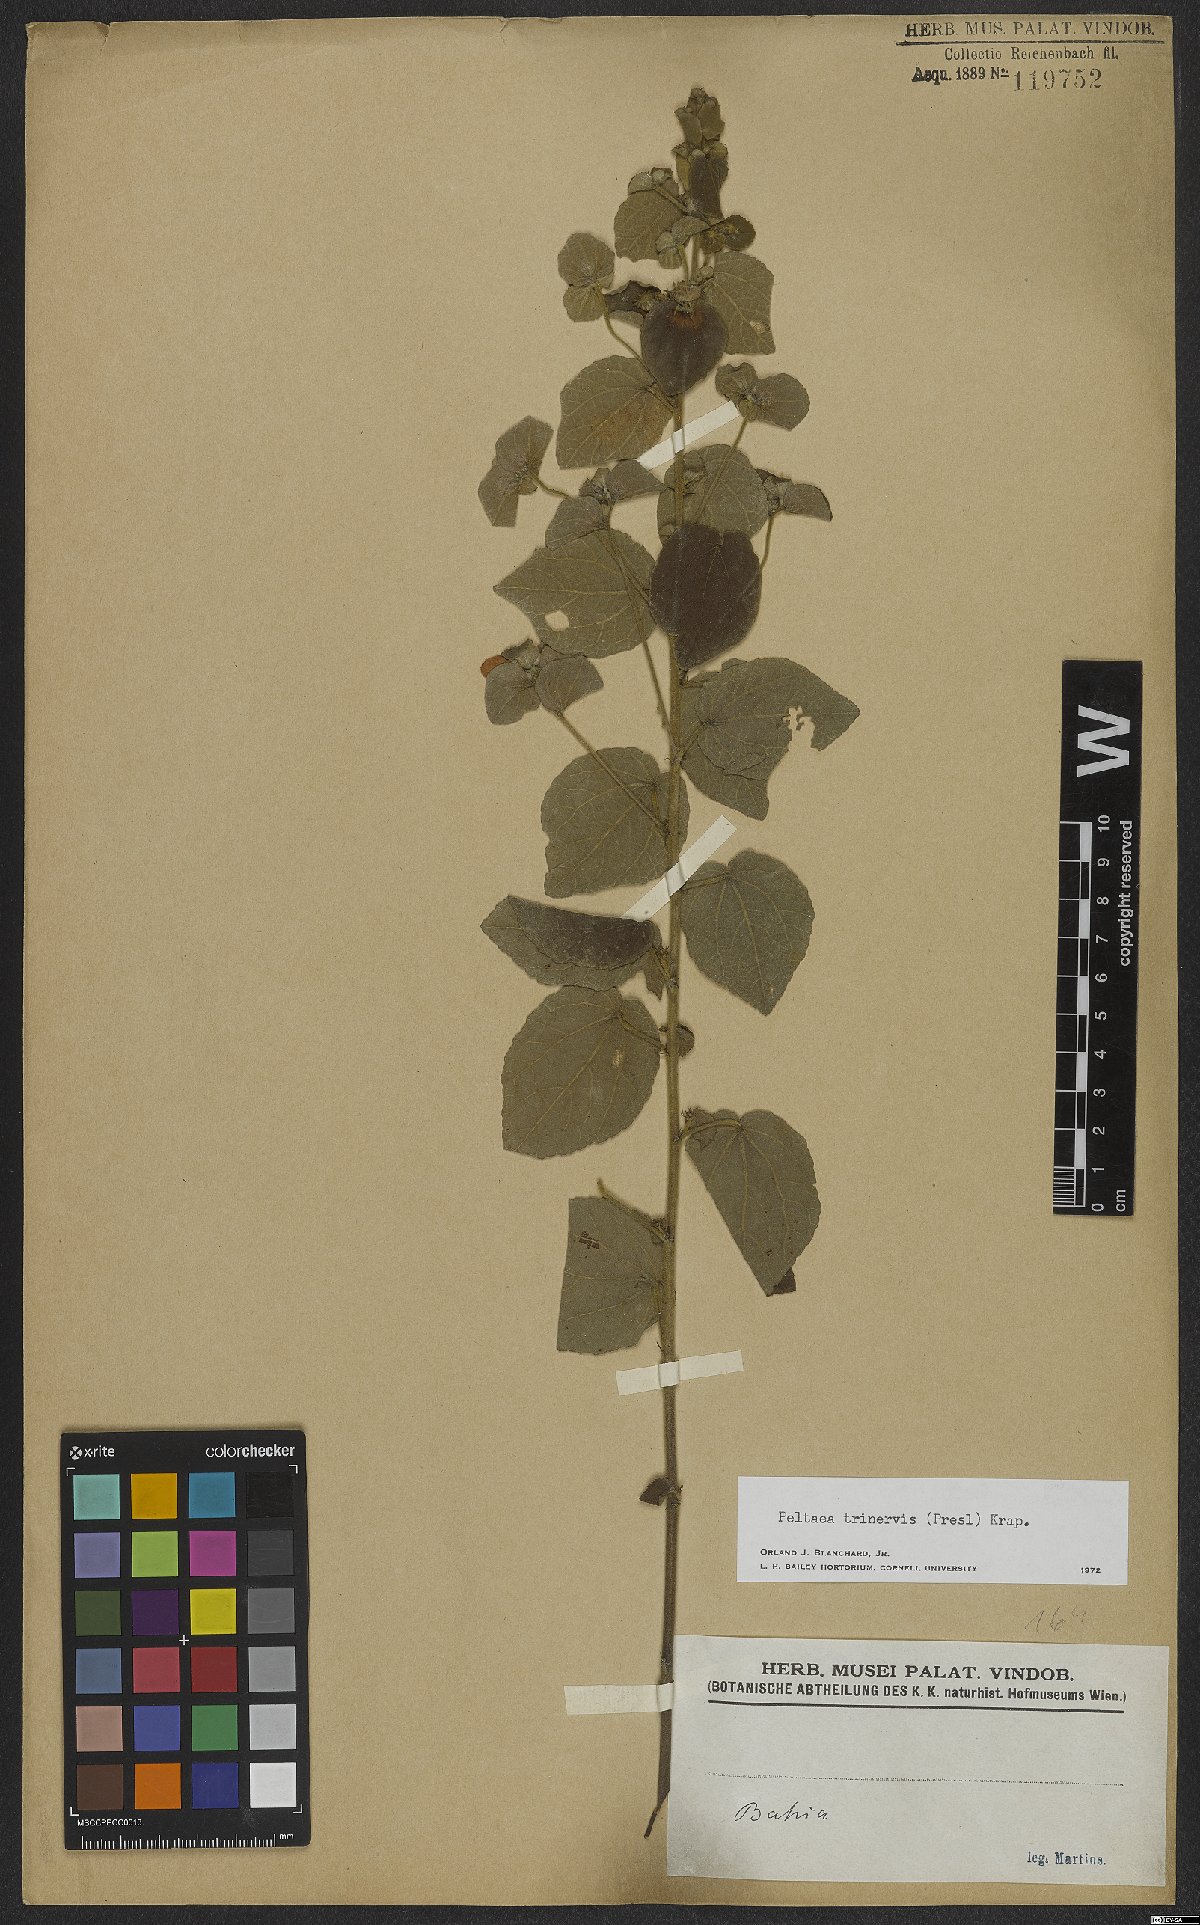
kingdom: Plantae
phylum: Tracheophyta
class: Magnoliopsida
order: Malvales
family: Malvaceae
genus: Peltaea
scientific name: Peltaea trinervis
